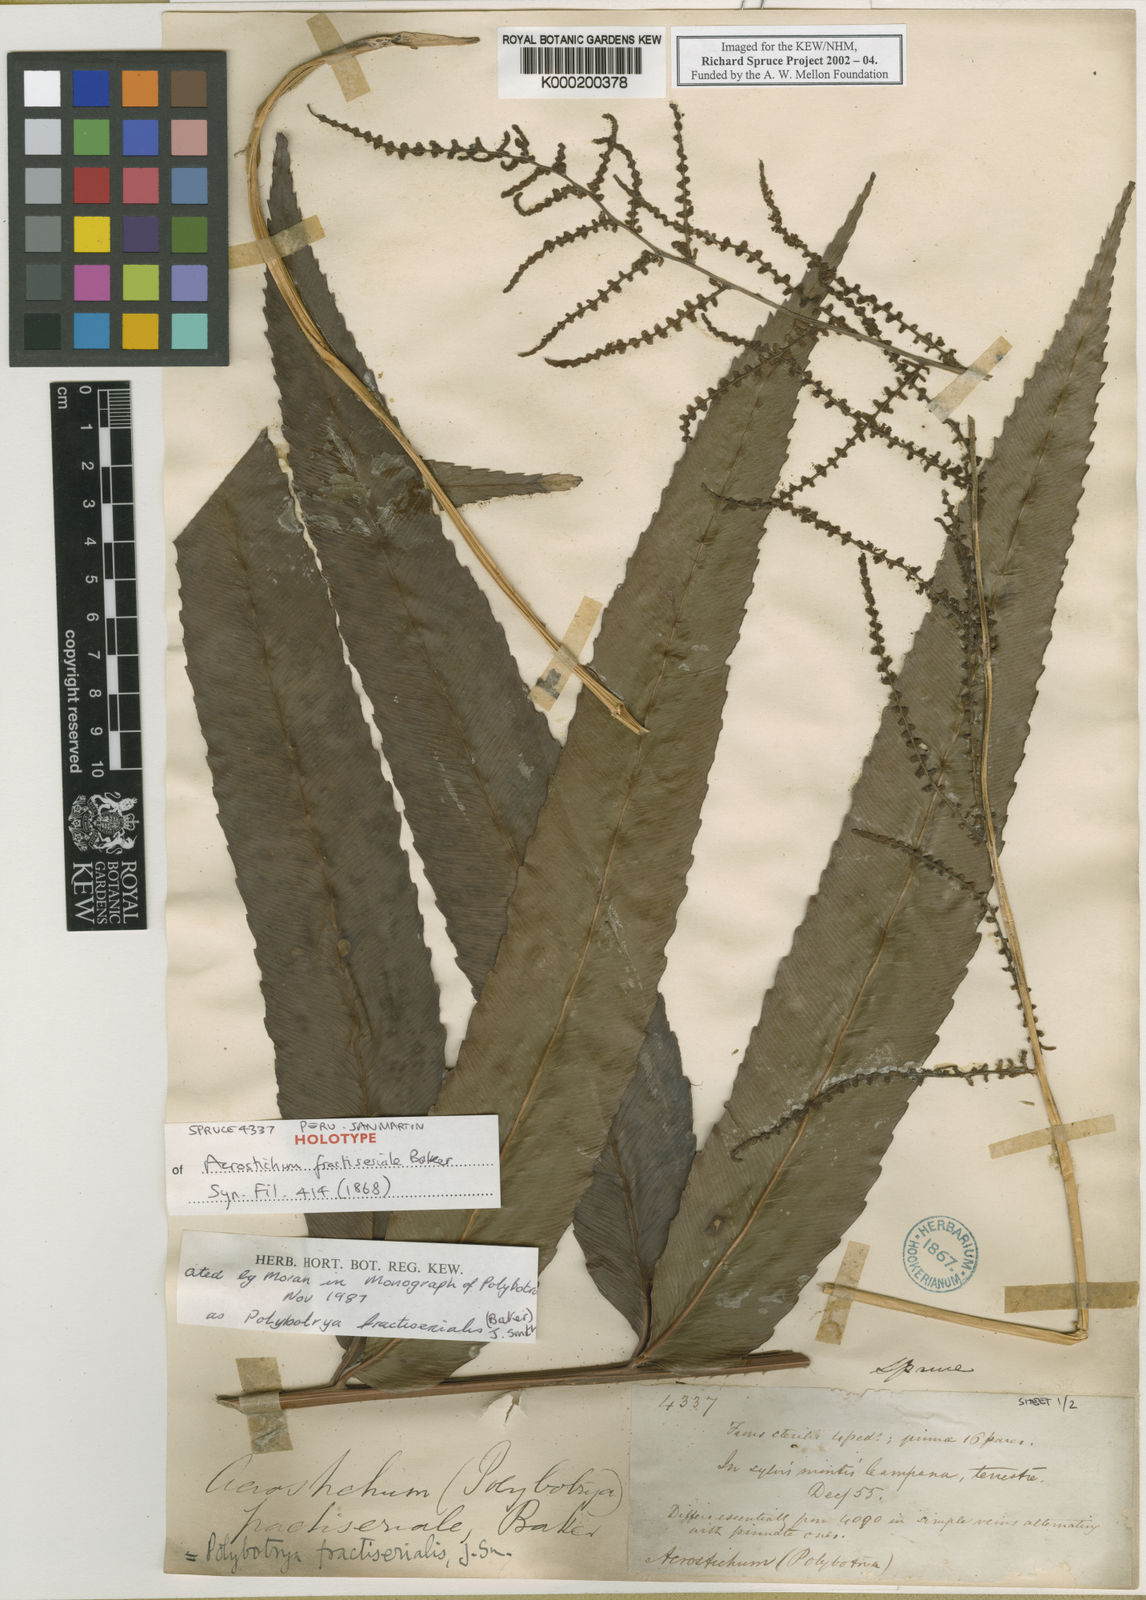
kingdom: Plantae
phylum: Tracheophyta
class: Polypodiopsida
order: Polypodiales
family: Dryopteridaceae
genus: Polybotrya
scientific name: Polybotrya fractiserialis
